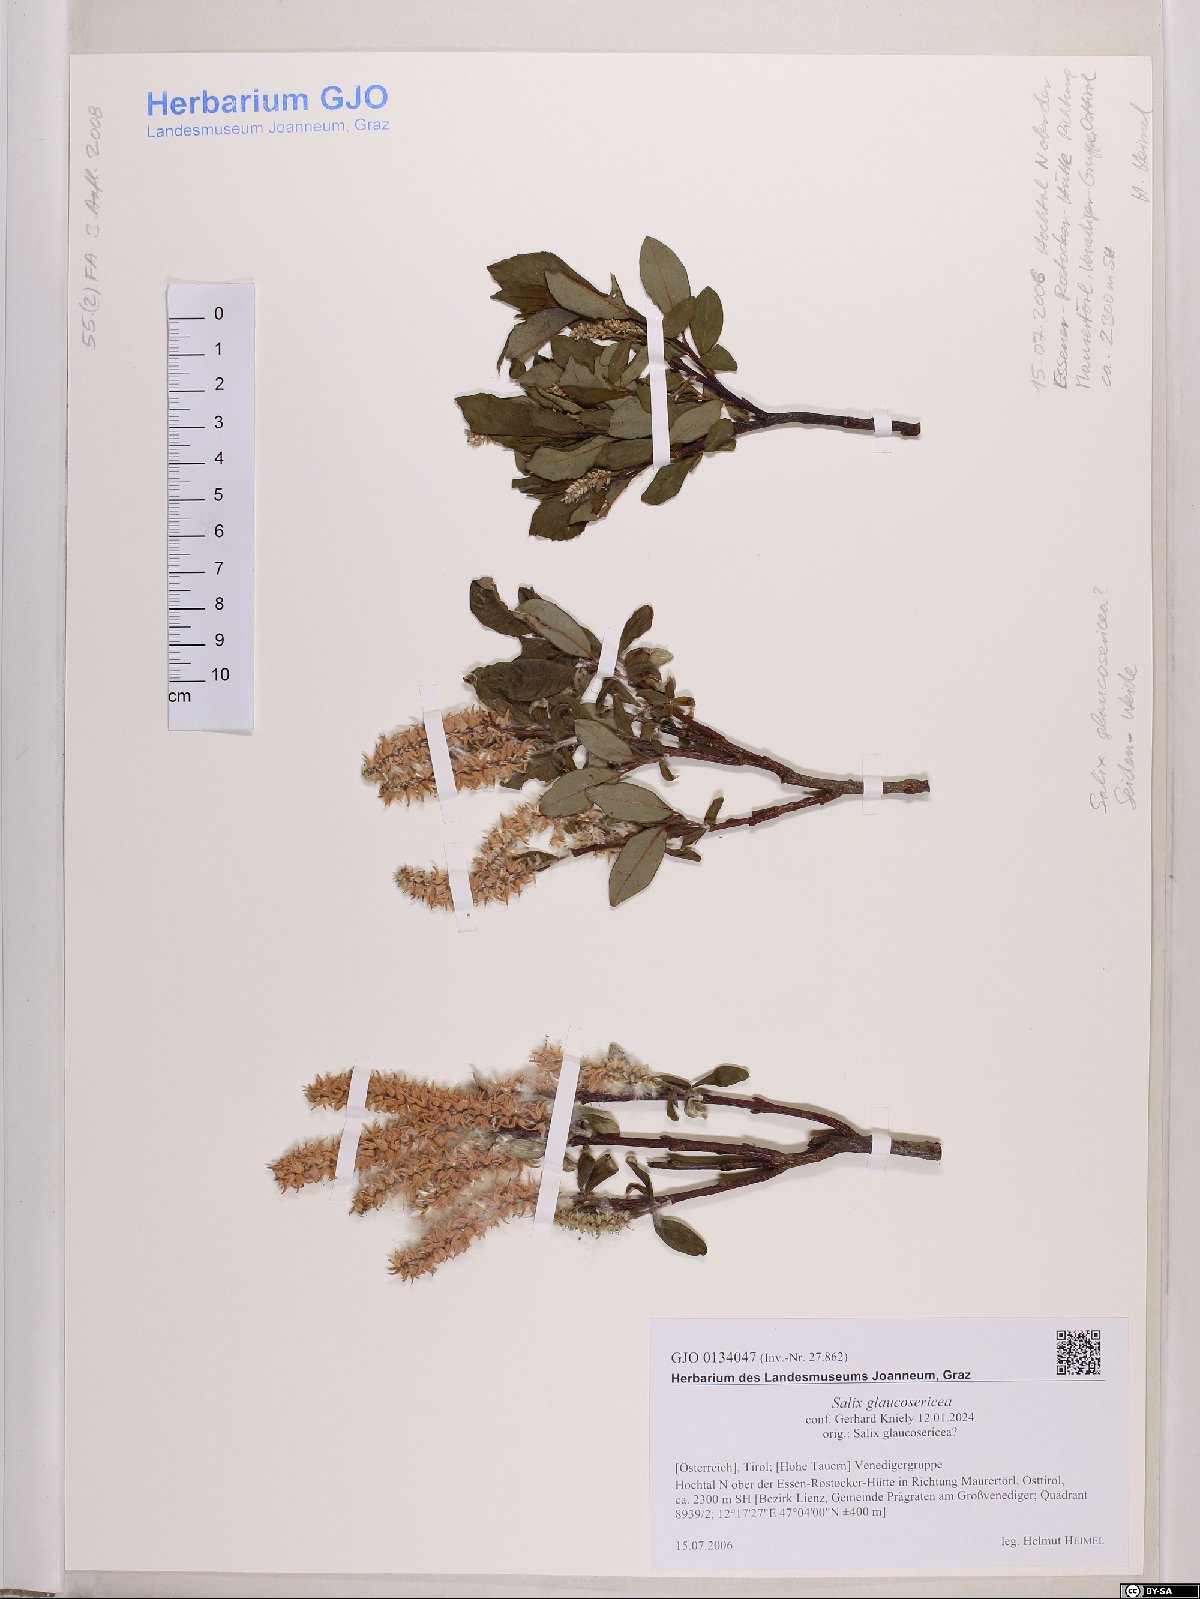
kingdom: Plantae
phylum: Tracheophyta
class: Magnoliopsida
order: Malpighiales
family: Salicaceae
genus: Salix
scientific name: Salix glaucosericea
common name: Alpine gray willow
